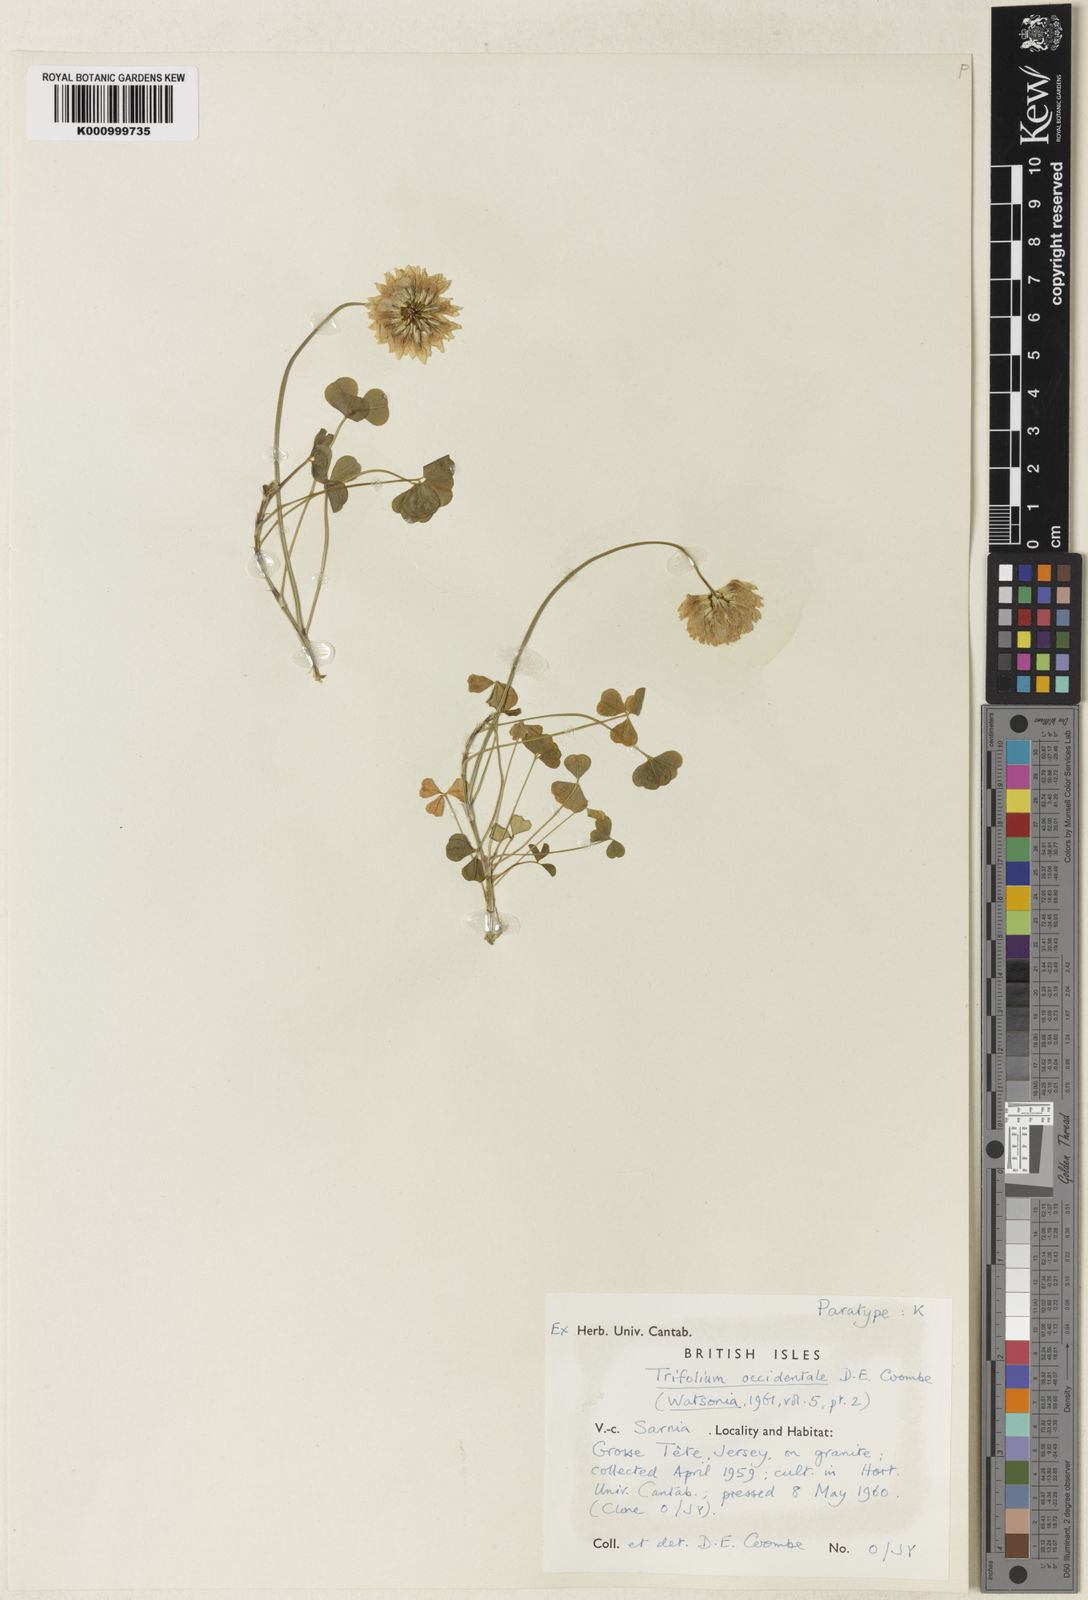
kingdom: Plantae
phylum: Tracheophyta
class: Magnoliopsida
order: Fabales
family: Fabaceae
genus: Trifolium
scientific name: Trifolium occidentale
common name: Western clover
